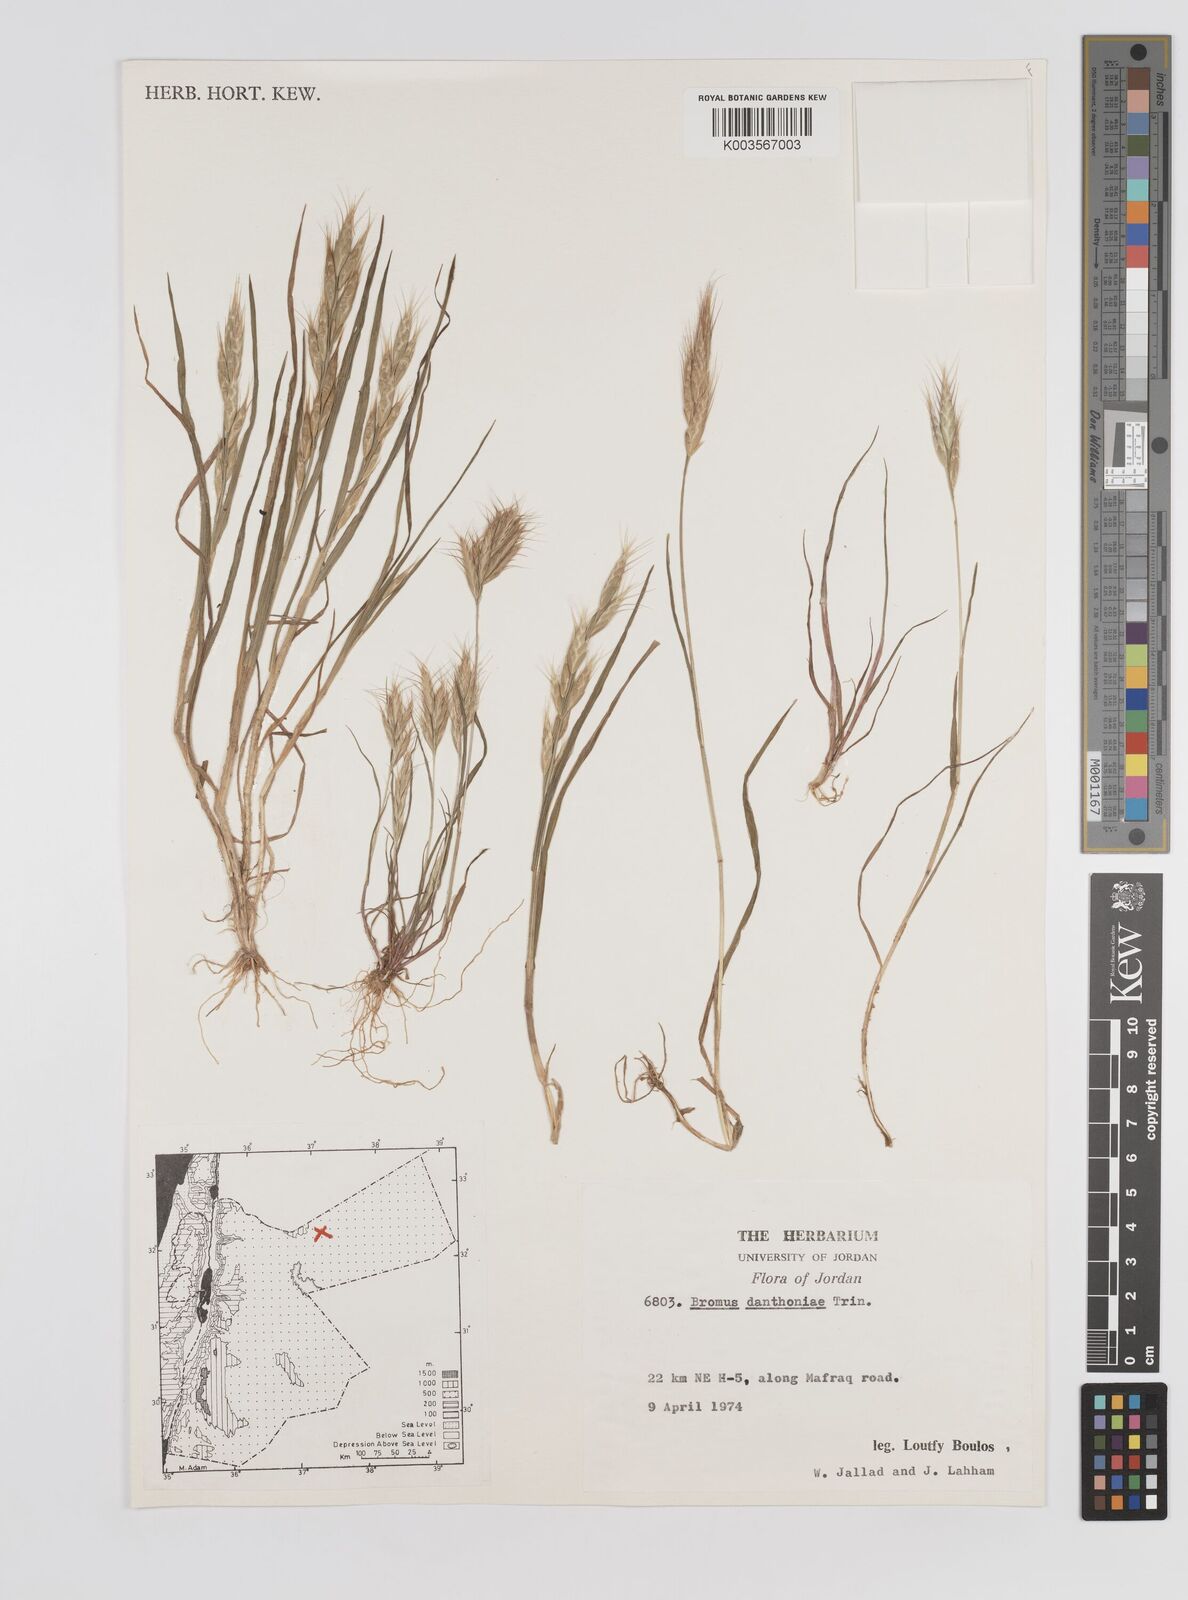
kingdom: Plantae
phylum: Tracheophyta
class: Liliopsida
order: Poales
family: Poaceae
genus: Bromus
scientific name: Bromus danthoniae
